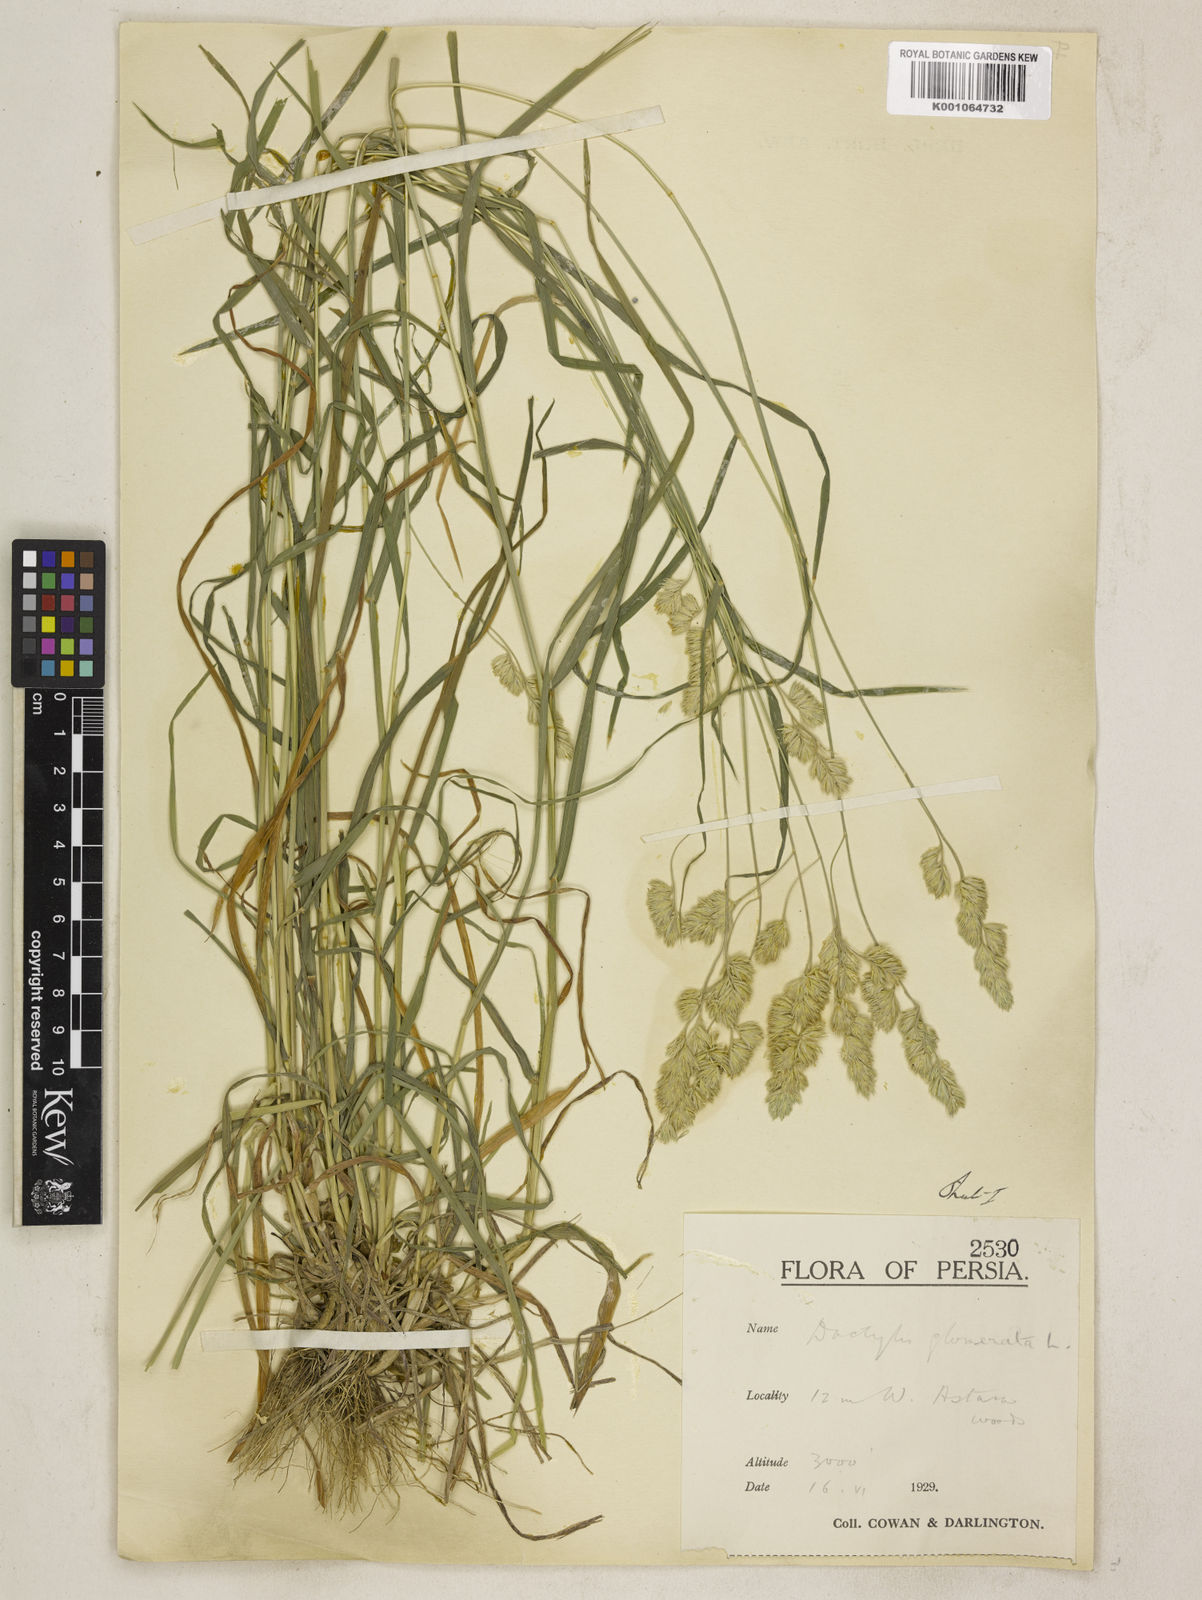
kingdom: Plantae
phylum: Tracheophyta
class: Liliopsida
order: Poales
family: Poaceae
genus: Dactylis
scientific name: Dactylis glomerata
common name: Orchardgrass
